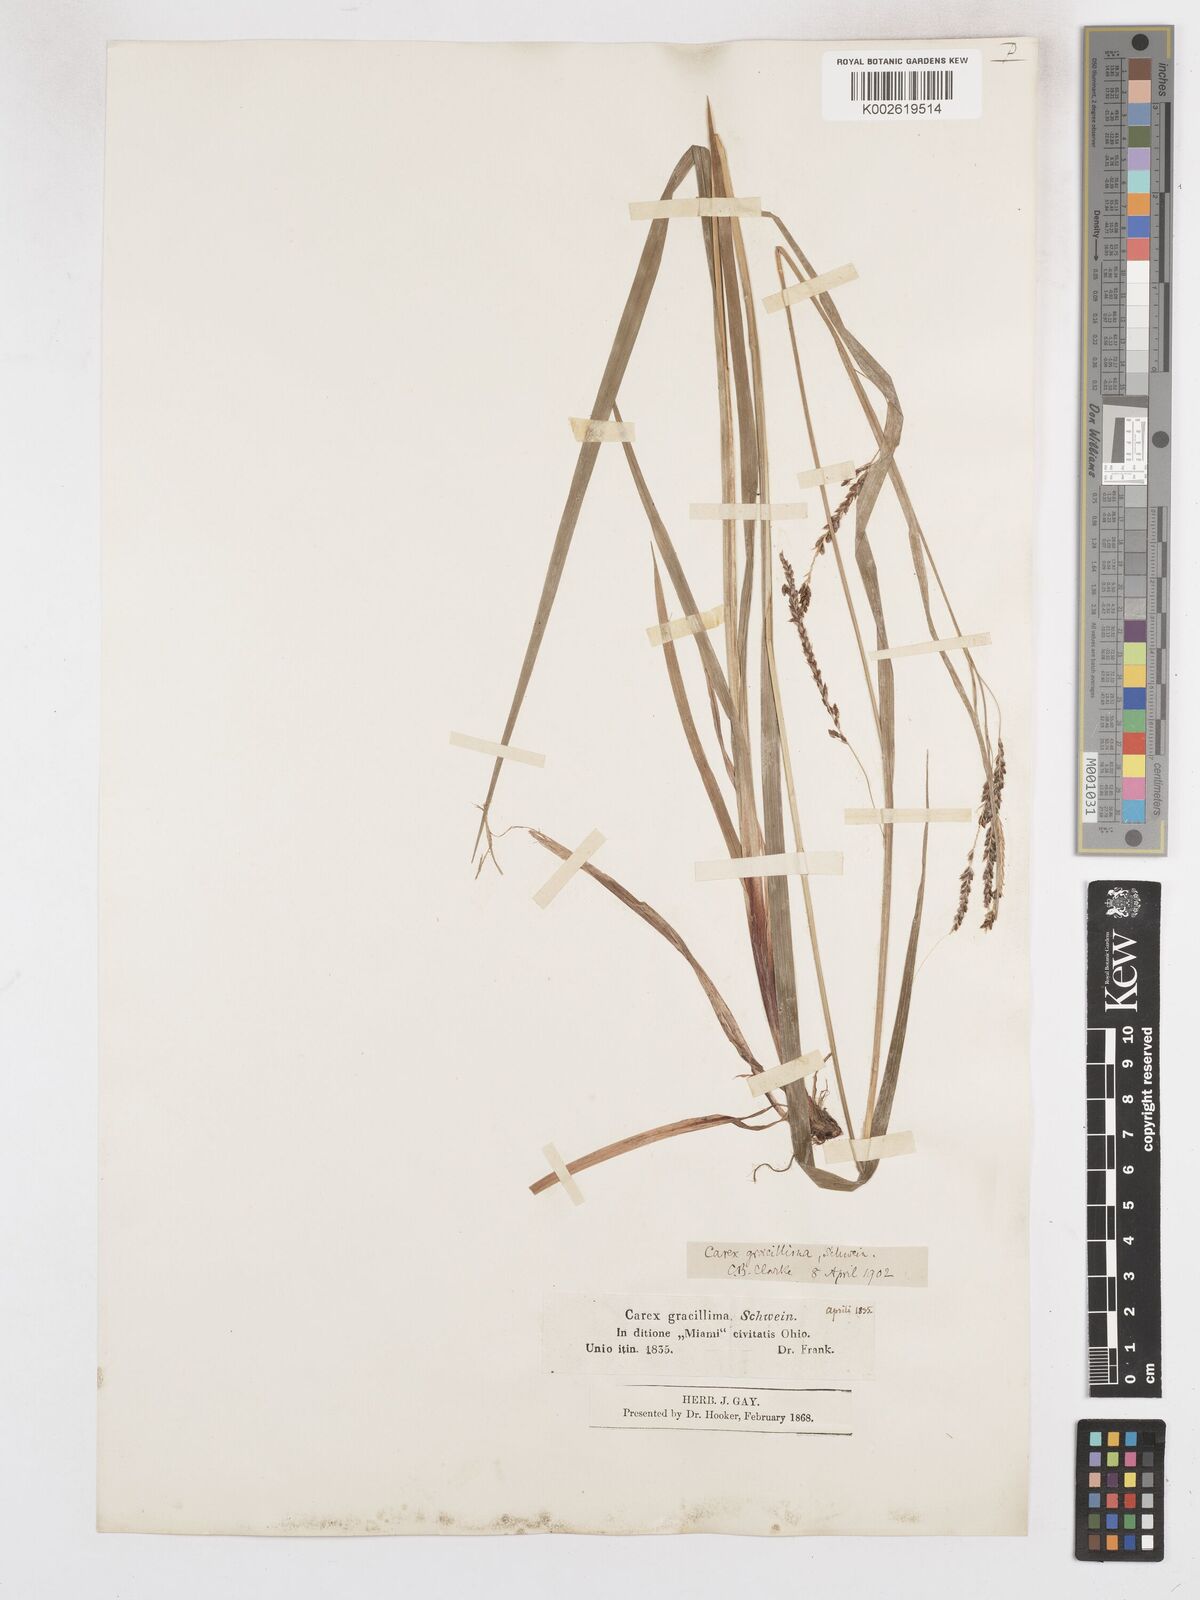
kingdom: Plantae
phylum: Tracheophyta
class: Liliopsida
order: Poales
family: Cyperaceae
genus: Carex
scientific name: Carex gracillima
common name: Graceful sedge
